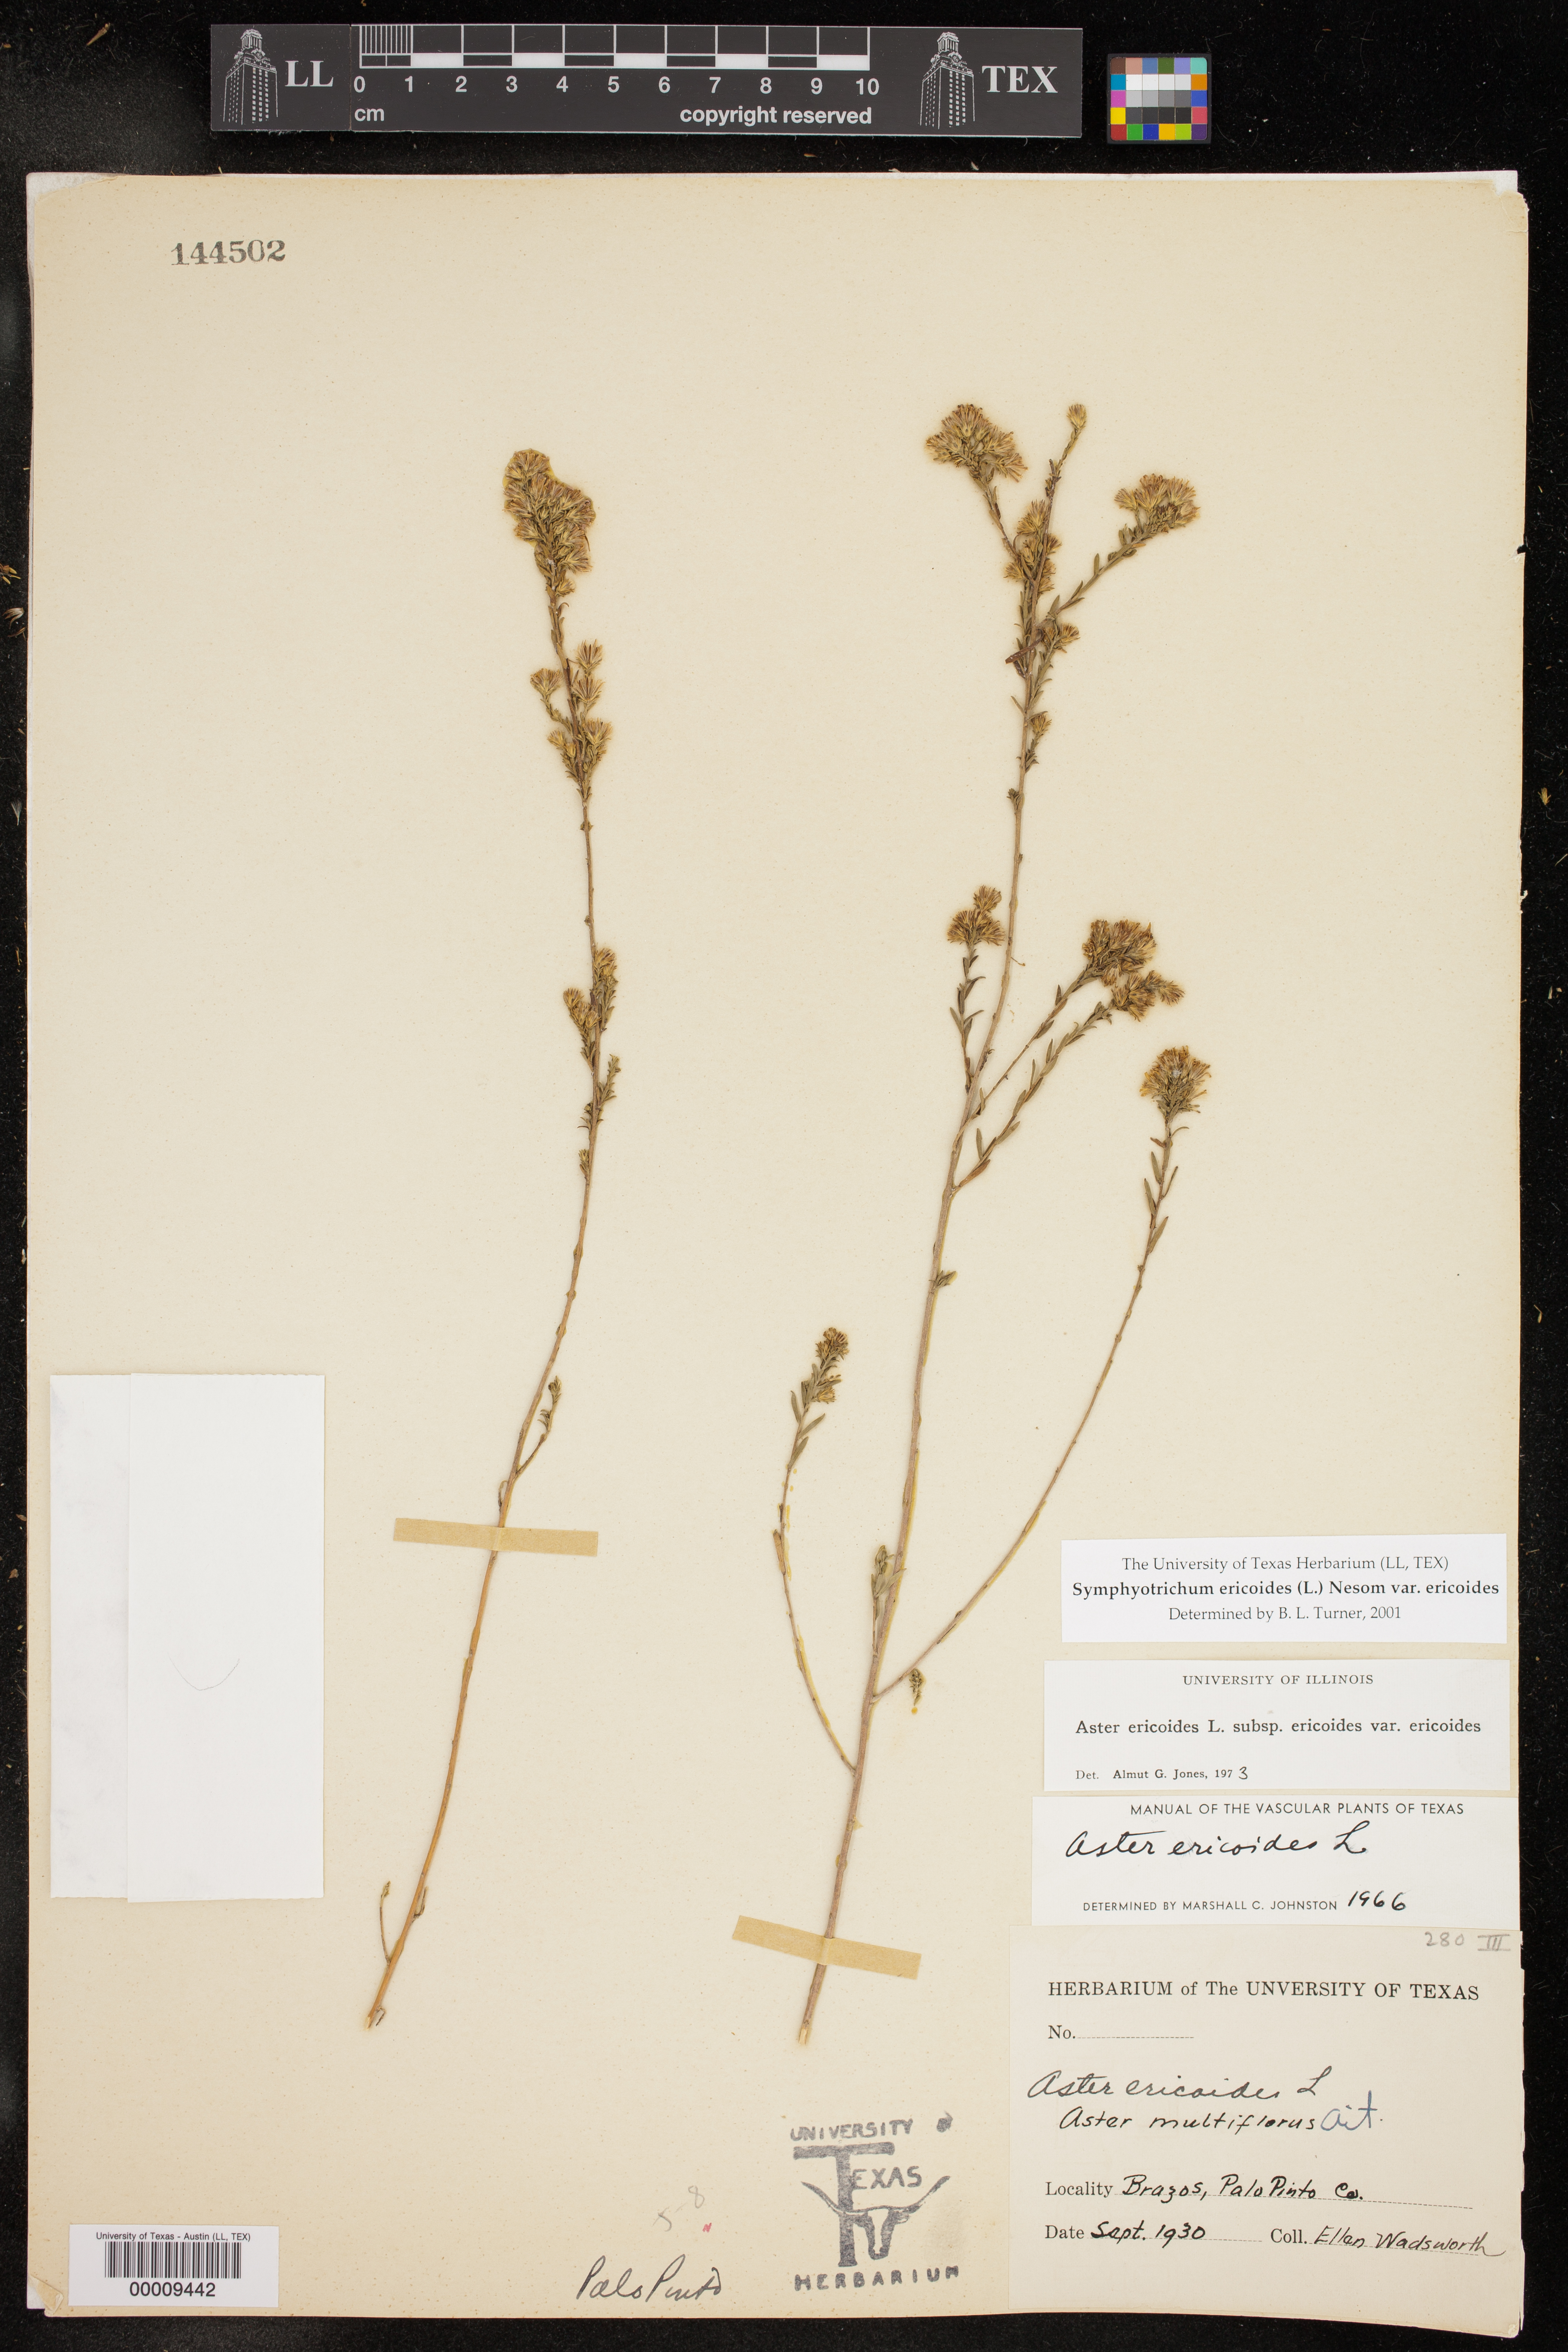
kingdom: Plantae
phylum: Tracheophyta
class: Magnoliopsida
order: Asterales
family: Asteraceae
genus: Symphyotrichum
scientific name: Symphyotrichum ericoides
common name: Heath aster
